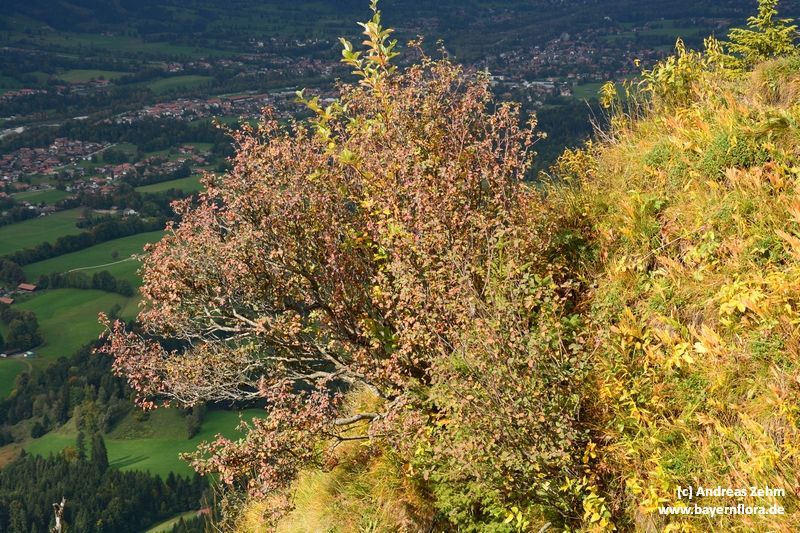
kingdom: Plantae
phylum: Tracheophyta
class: Magnoliopsida
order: Rosales
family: Rosaceae
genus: Amelanchier
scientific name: Amelanchier ovalis
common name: Serviceberry
